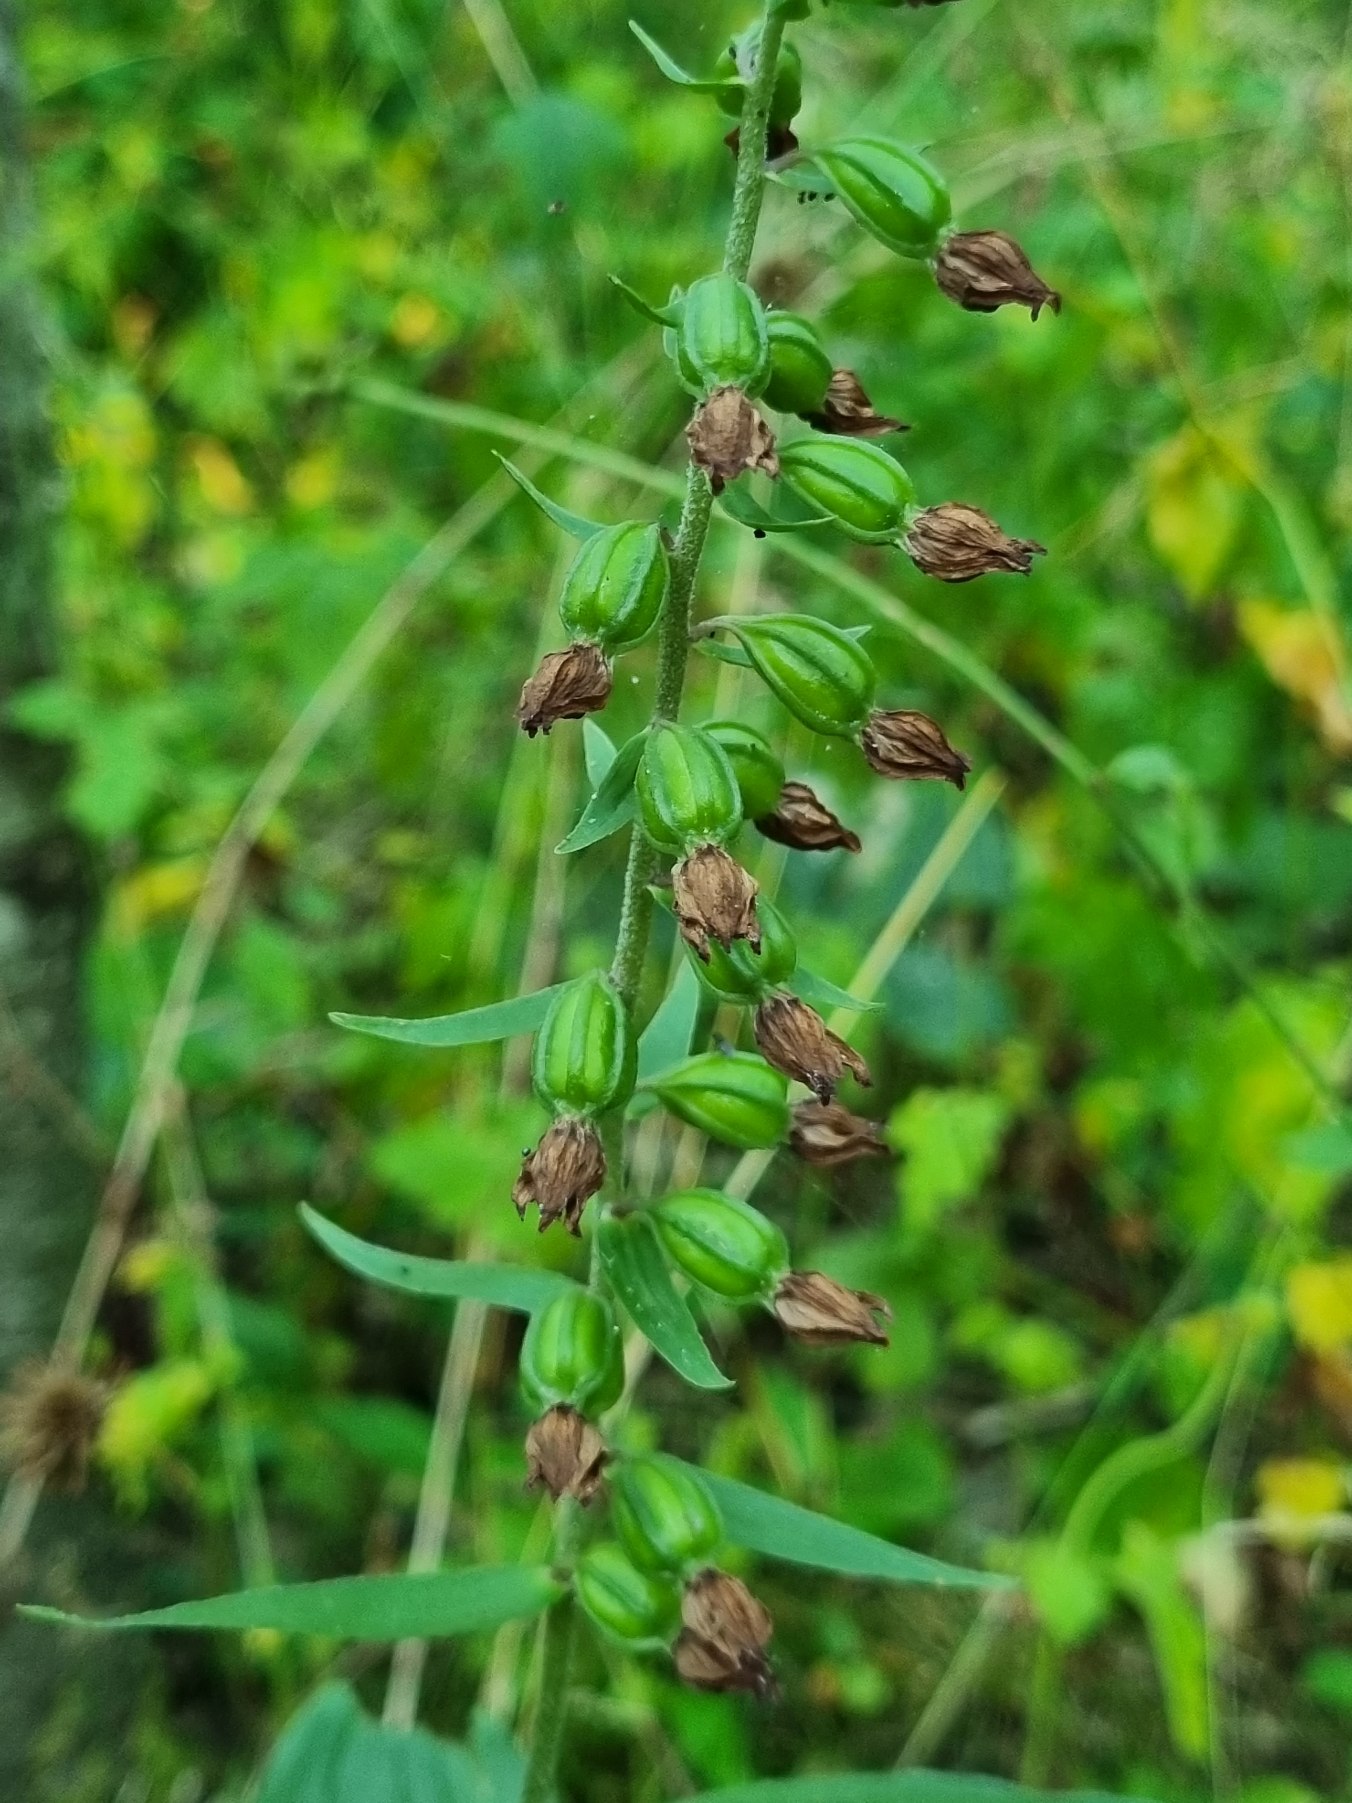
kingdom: Plantae
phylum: Tracheophyta
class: Liliopsida
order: Asparagales
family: Orchidaceae
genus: Epipactis
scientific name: Epipactis helleborine
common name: Skov-hullæbe
